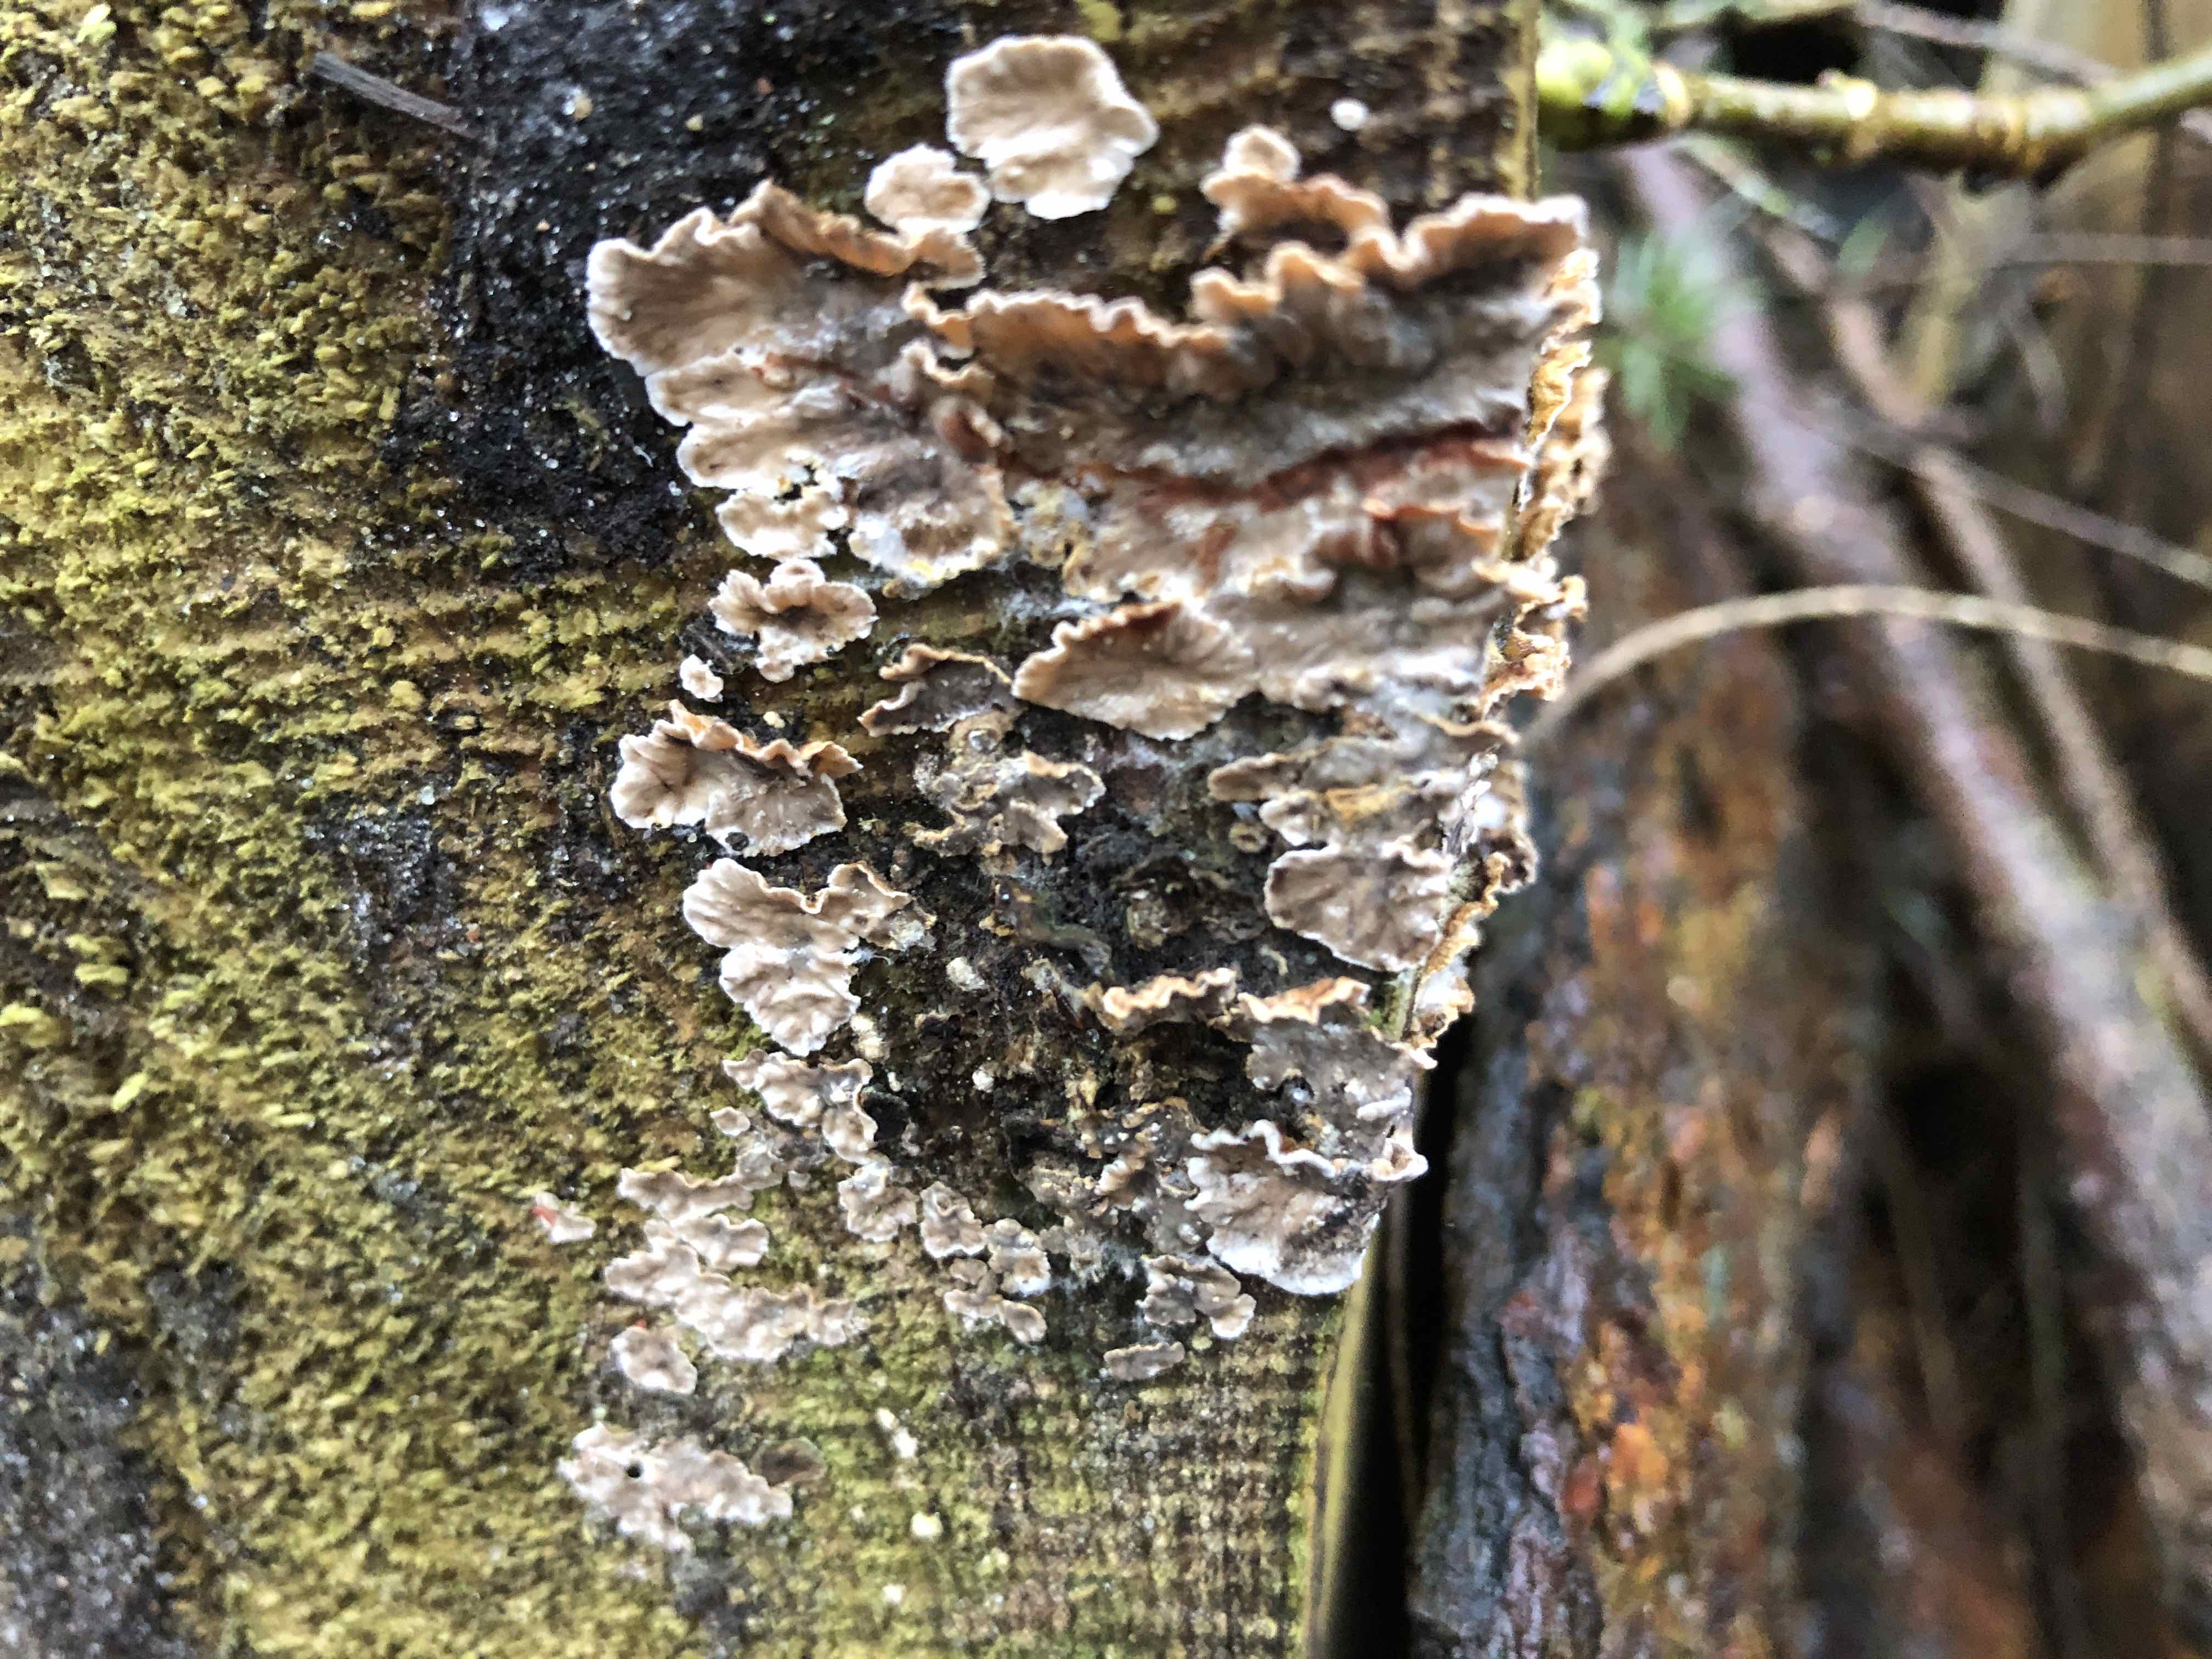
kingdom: Fungi
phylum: Basidiomycota
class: Agaricomycetes
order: Russulales
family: Stereaceae
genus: Stereum
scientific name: Stereum sanguinolentum
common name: blødende lædersvamp
